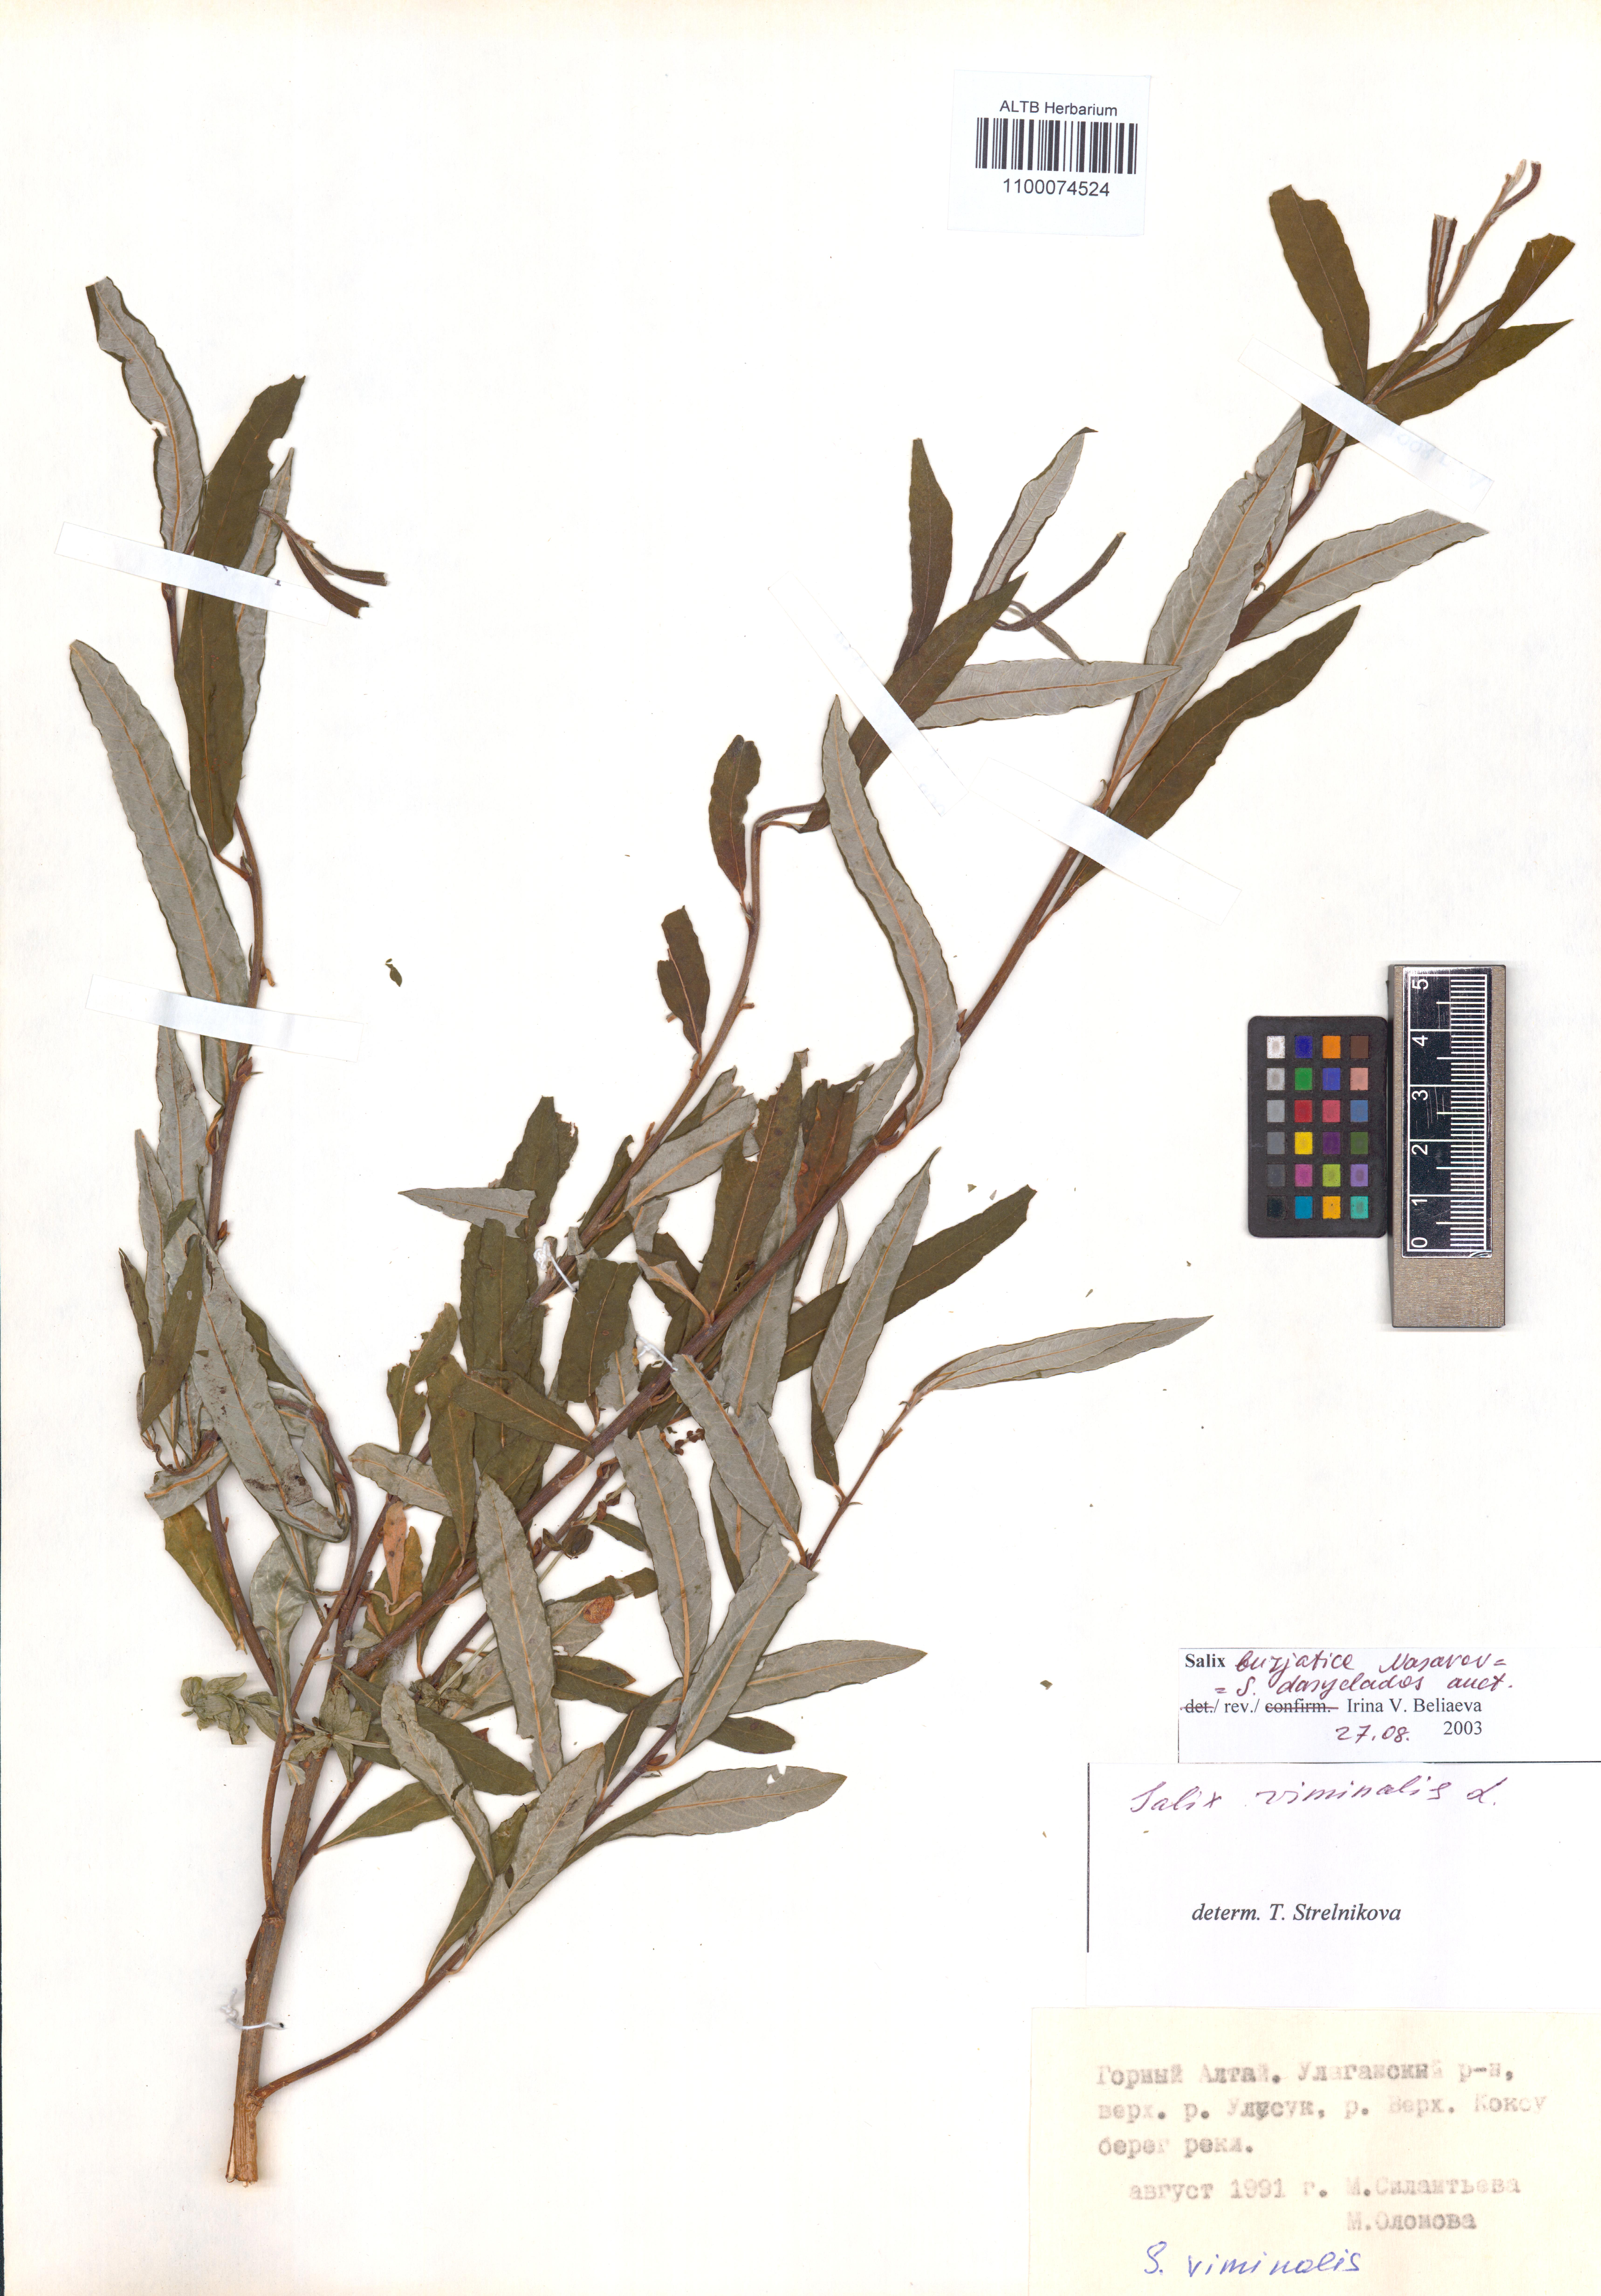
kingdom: Plantae
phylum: Tracheophyta
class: Magnoliopsida
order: Malpighiales
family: Salicaceae
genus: Salix
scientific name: Salix gmelinii
